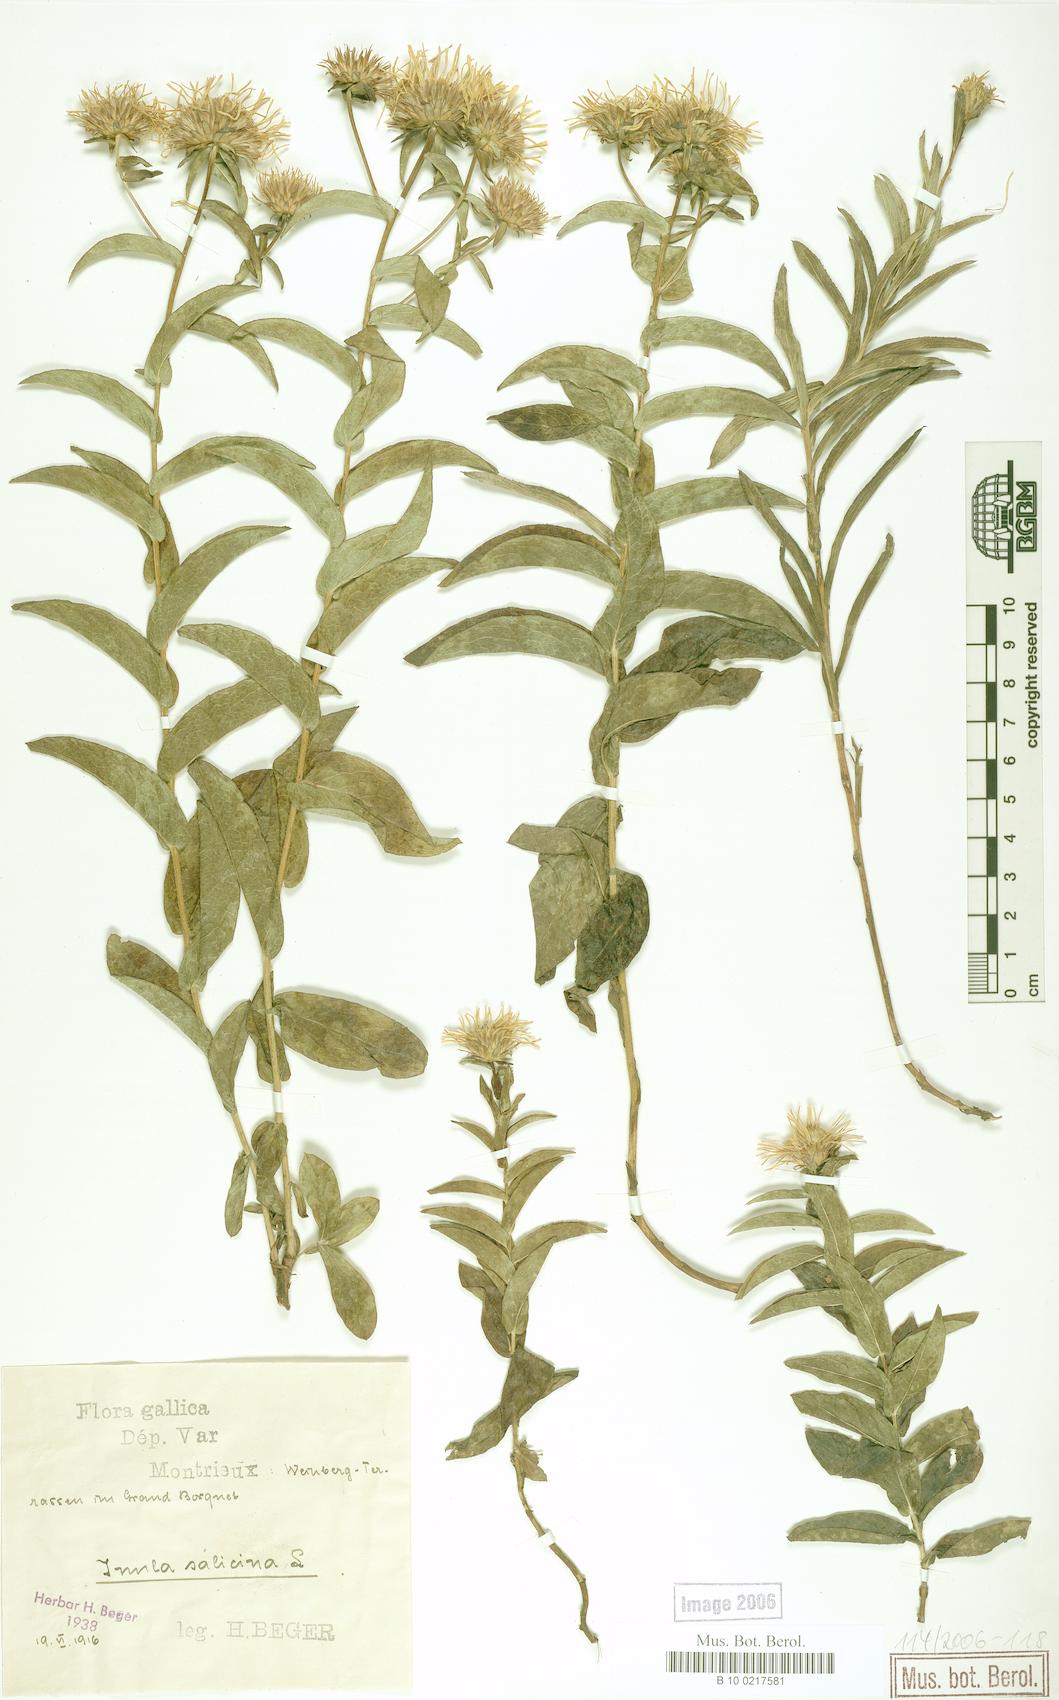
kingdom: Plantae
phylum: Tracheophyta
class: Magnoliopsida
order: Asterales
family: Asteraceae
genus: Pentanema
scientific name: Pentanema salicinum
